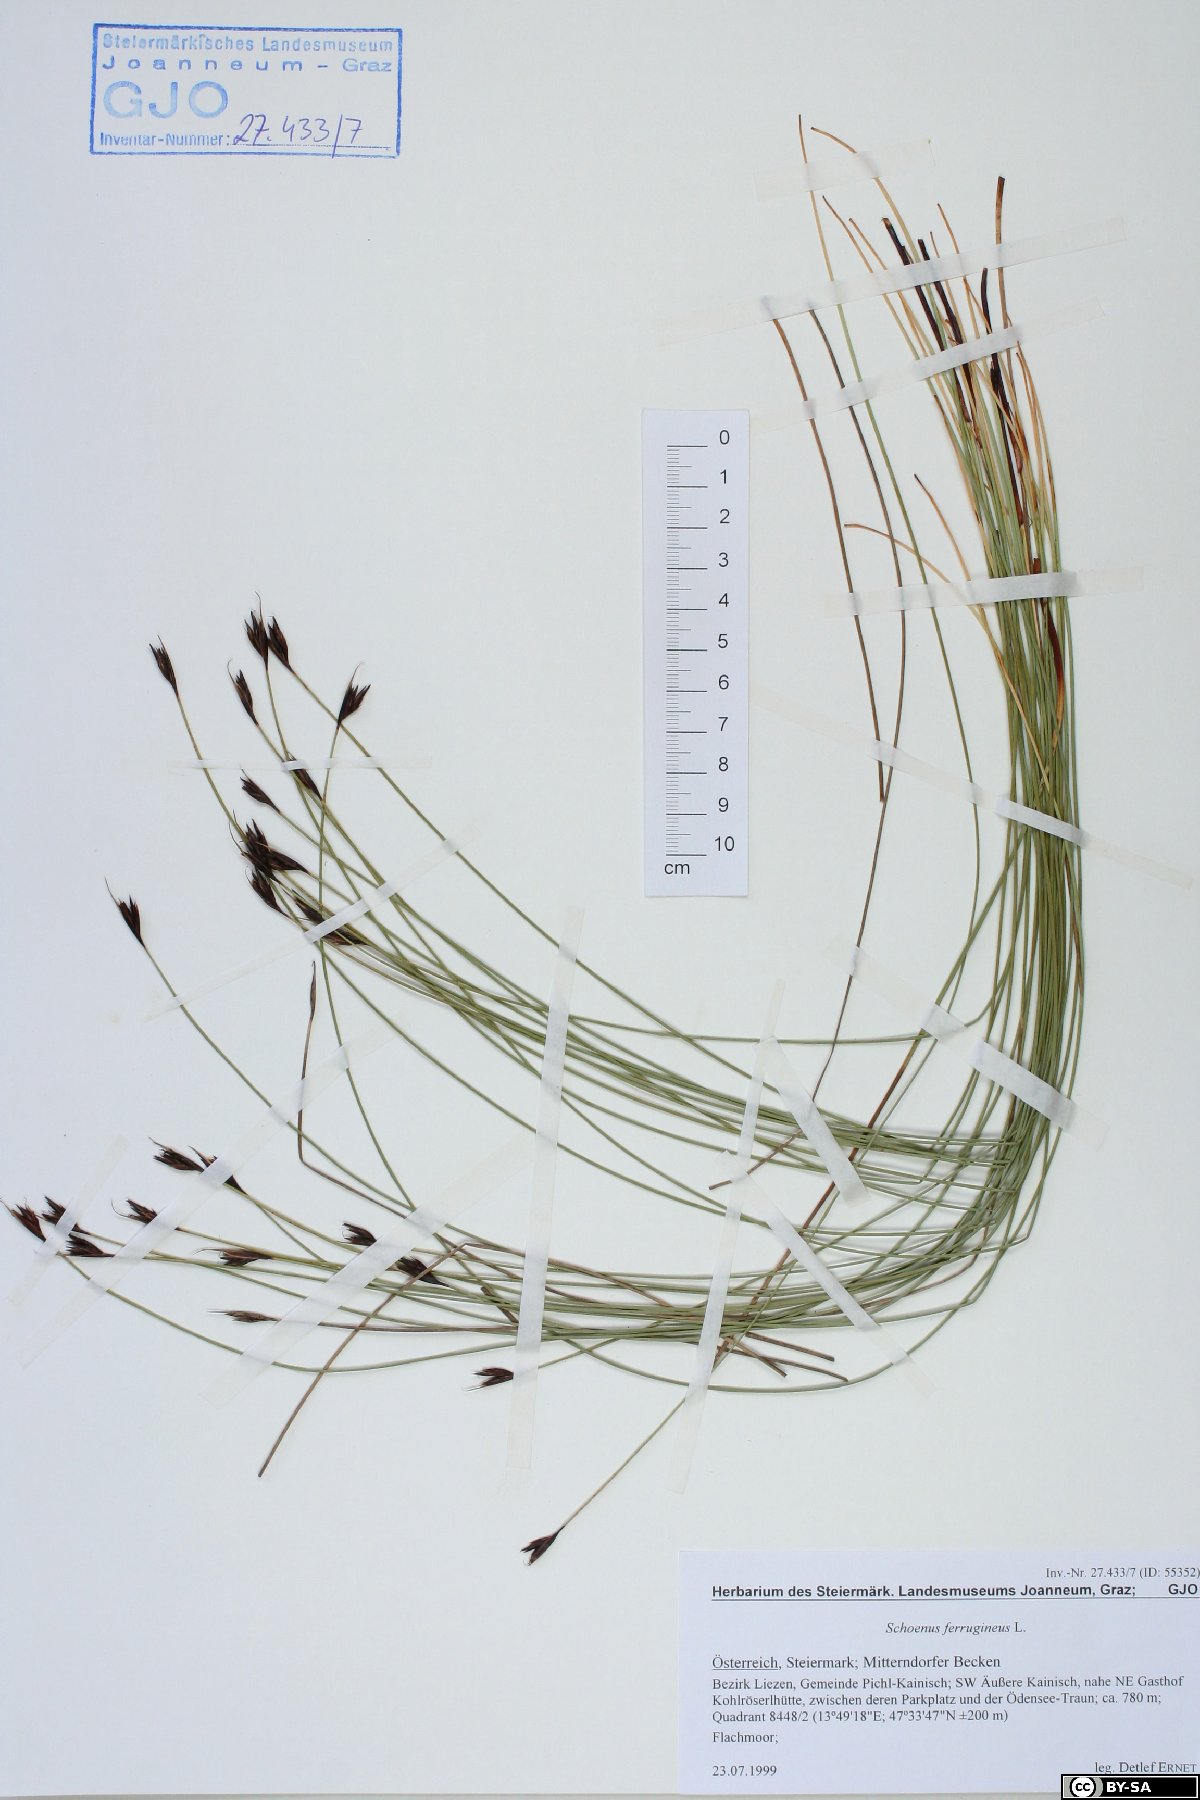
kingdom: Plantae
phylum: Tracheophyta
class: Liliopsida
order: Poales
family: Cyperaceae
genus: Schoenus
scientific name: Schoenus ferrugineus
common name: Brown bog-rush
